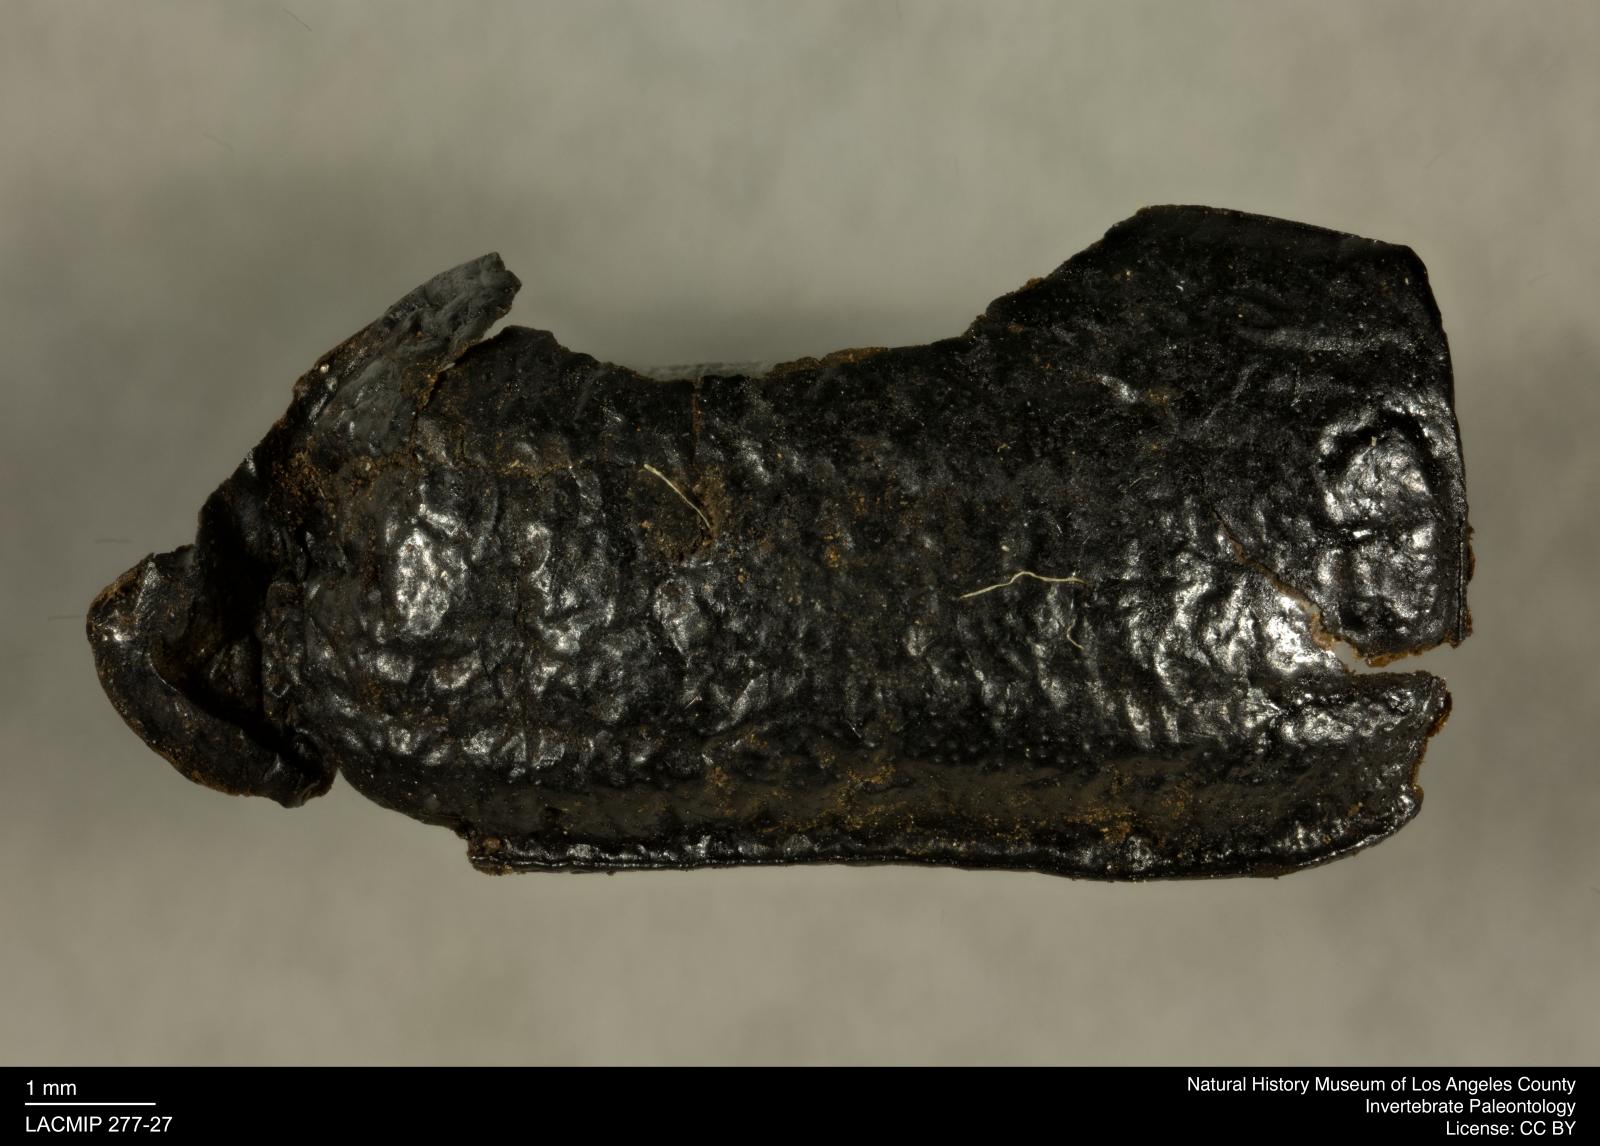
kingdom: Animalia
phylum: Arthropoda
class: Insecta
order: Coleoptera
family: Tenebrionidae
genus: Coniontis
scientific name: Coniontis abdominalis
